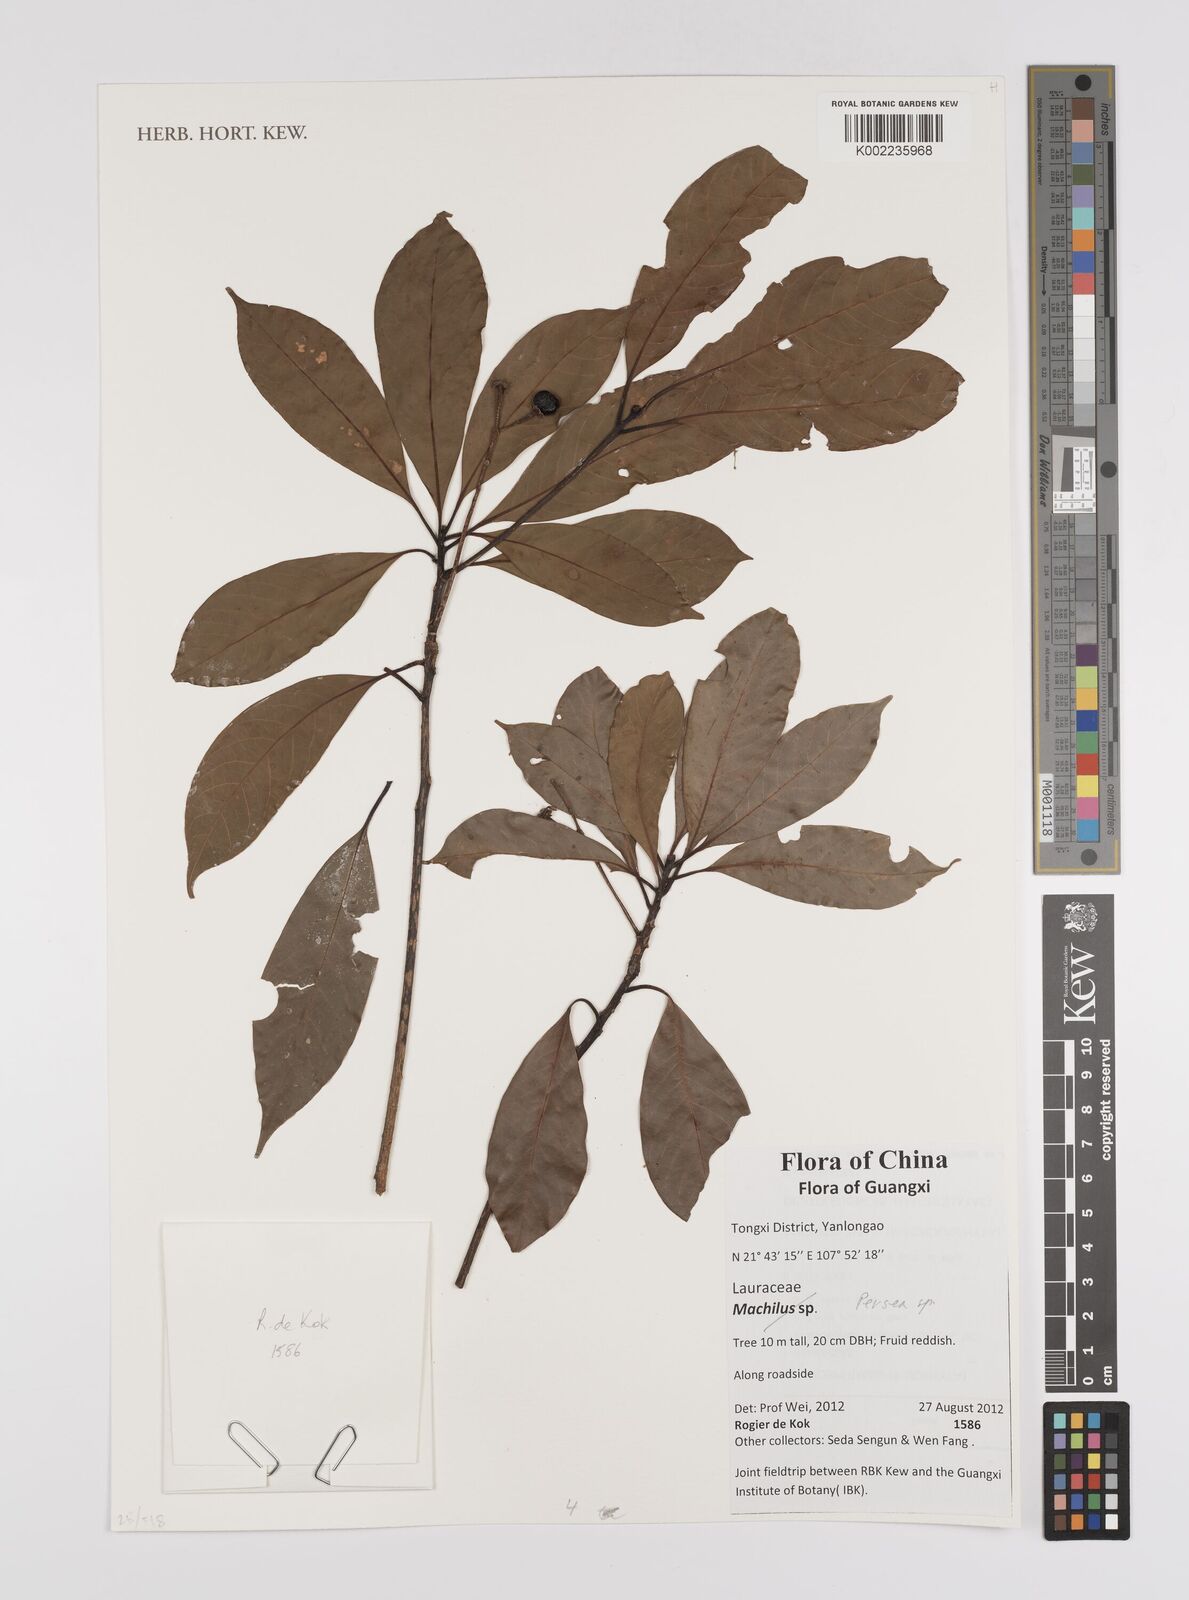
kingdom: Plantae
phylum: Tracheophyta
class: Magnoliopsida
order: Laurales
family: Lauraceae
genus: Persea
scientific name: Persea
